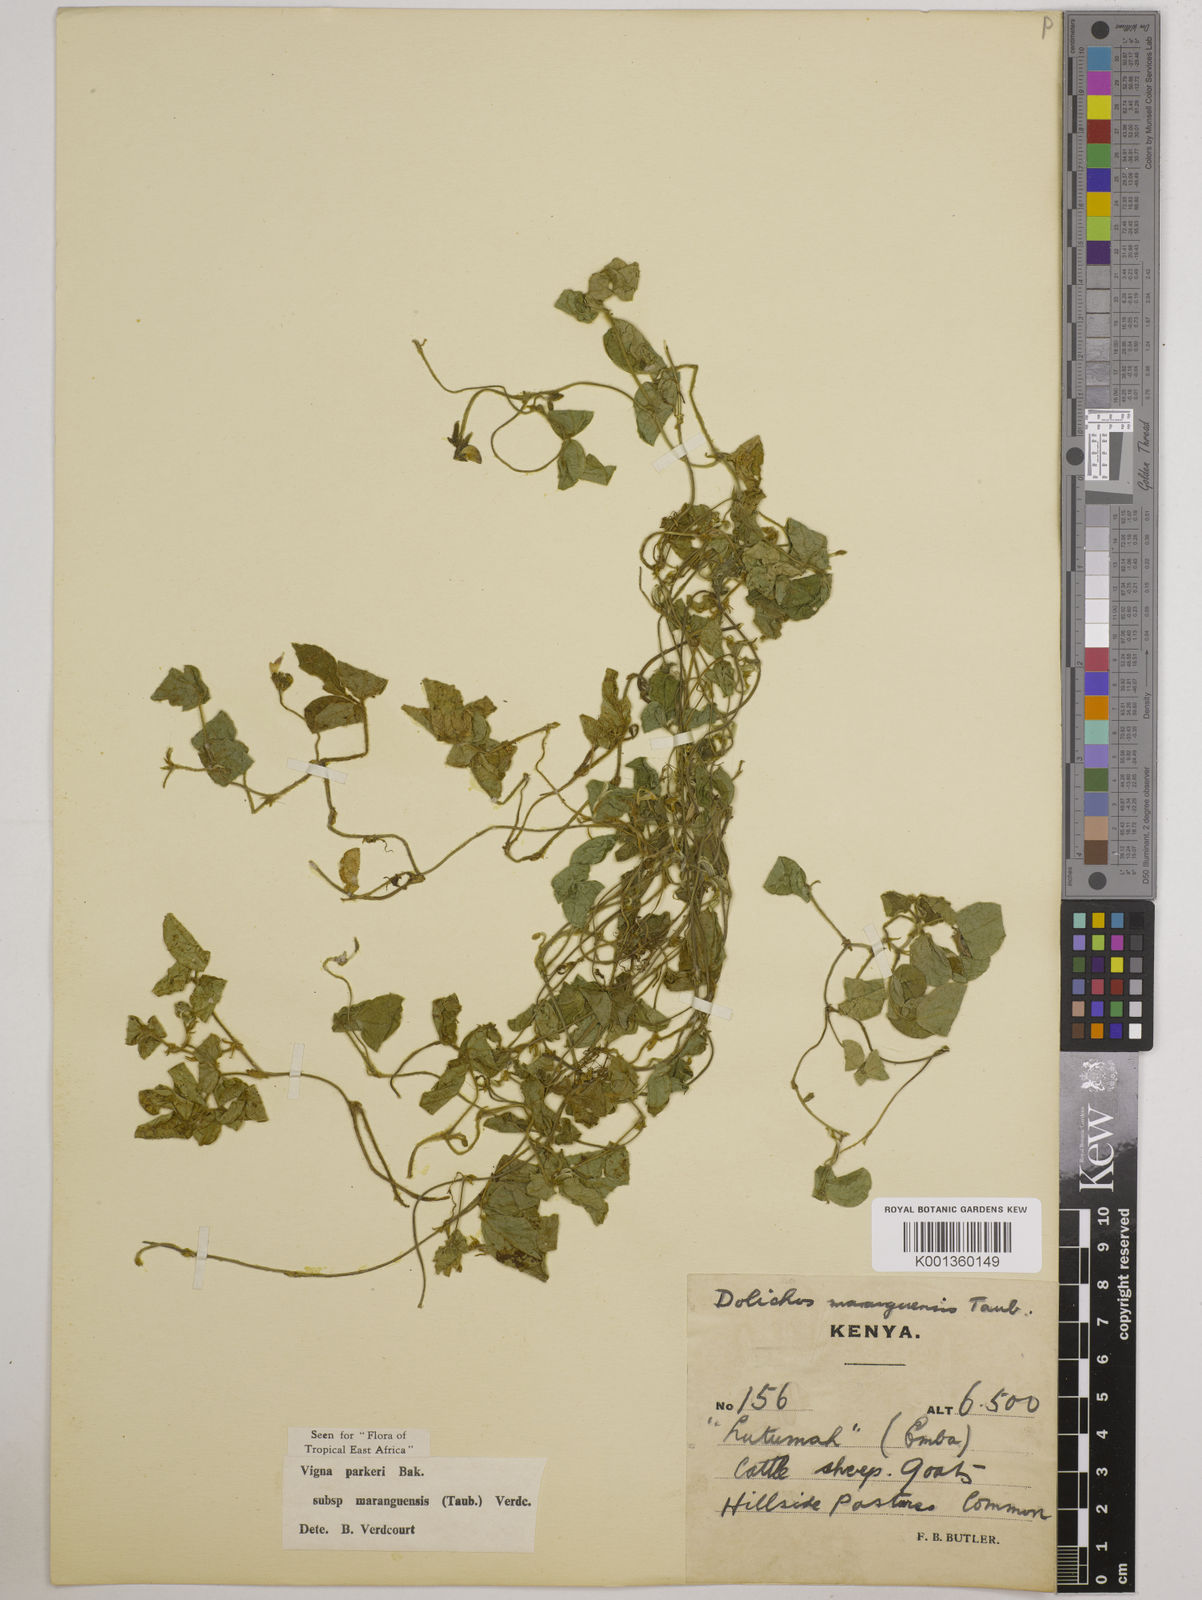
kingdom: Plantae
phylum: Tracheophyta
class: Magnoliopsida
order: Fabales
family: Fabaceae
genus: Vigna
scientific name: Vigna
